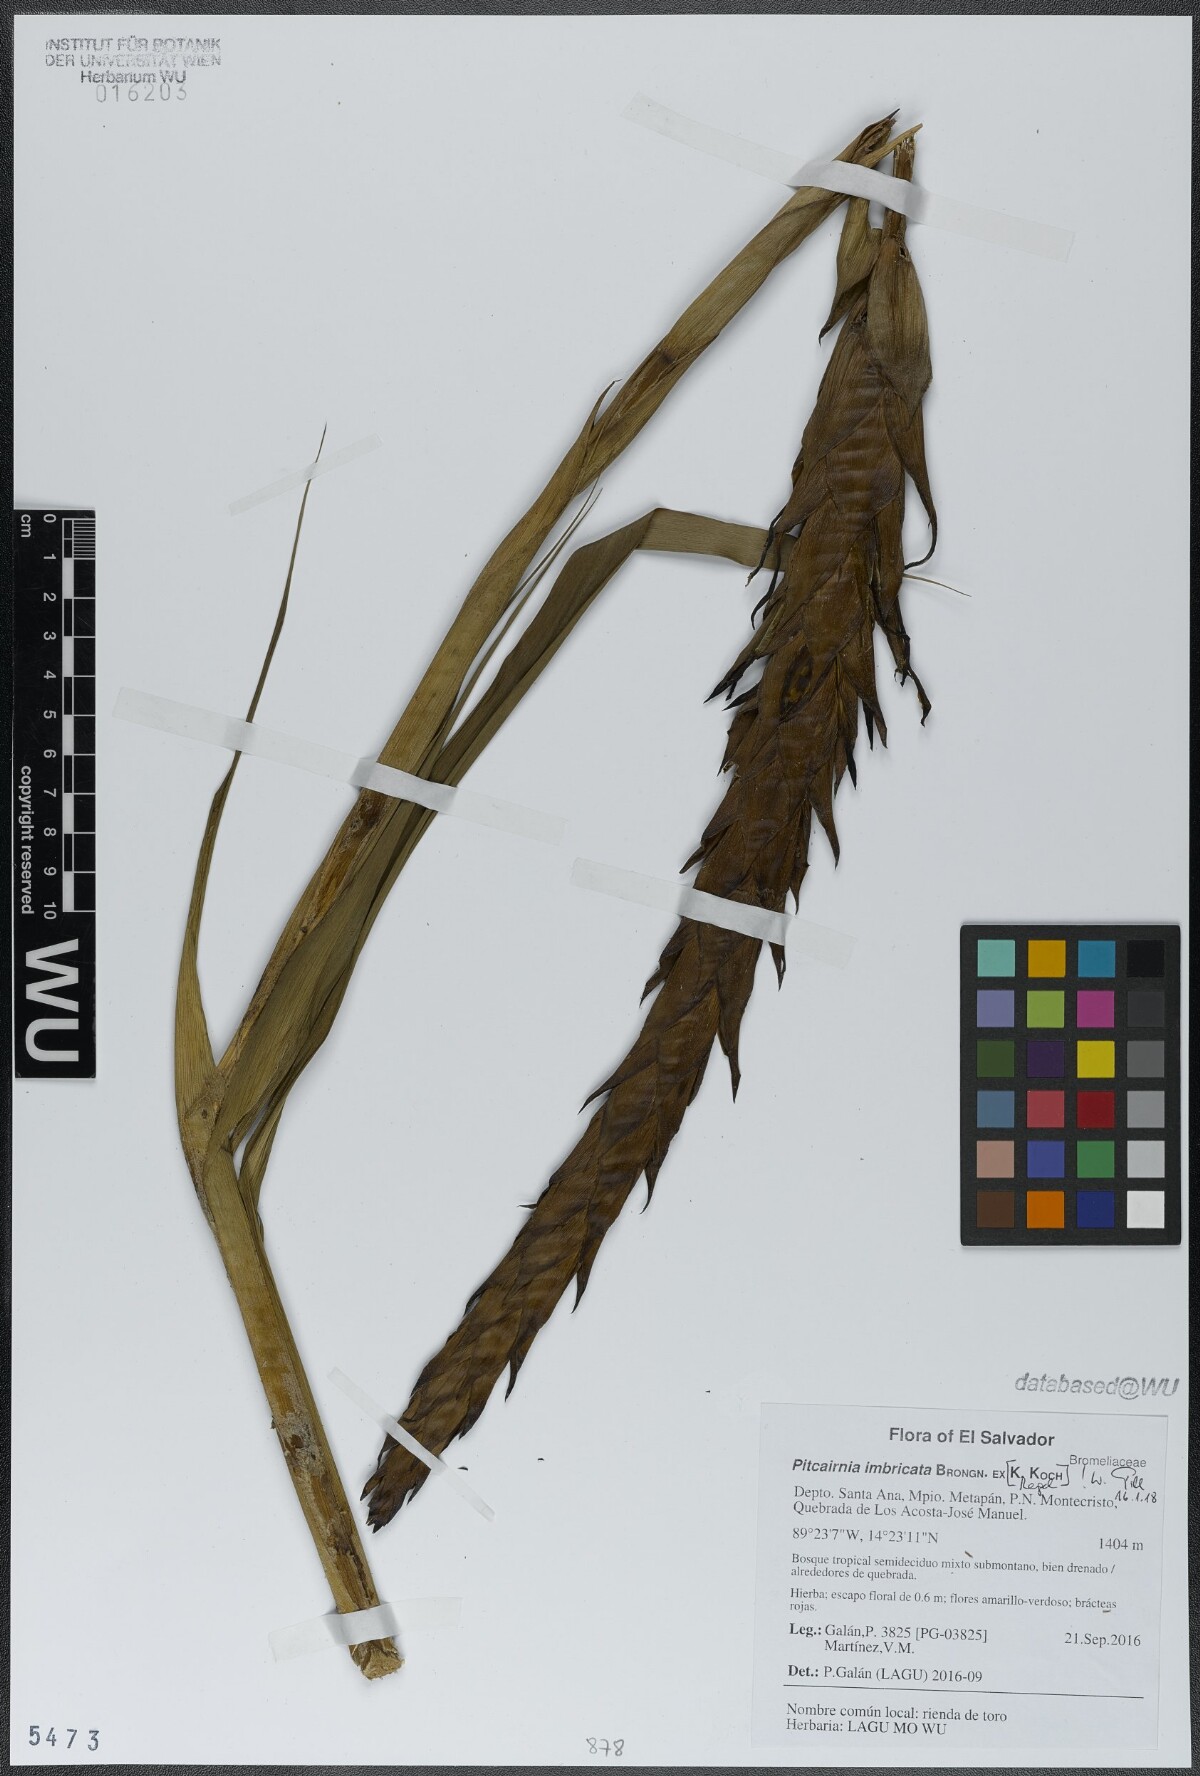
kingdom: Plantae
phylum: Tracheophyta
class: Liliopsida
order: Poales
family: Bromeliaceae
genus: Pitcairnia
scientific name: Pitcairnia imbricata
